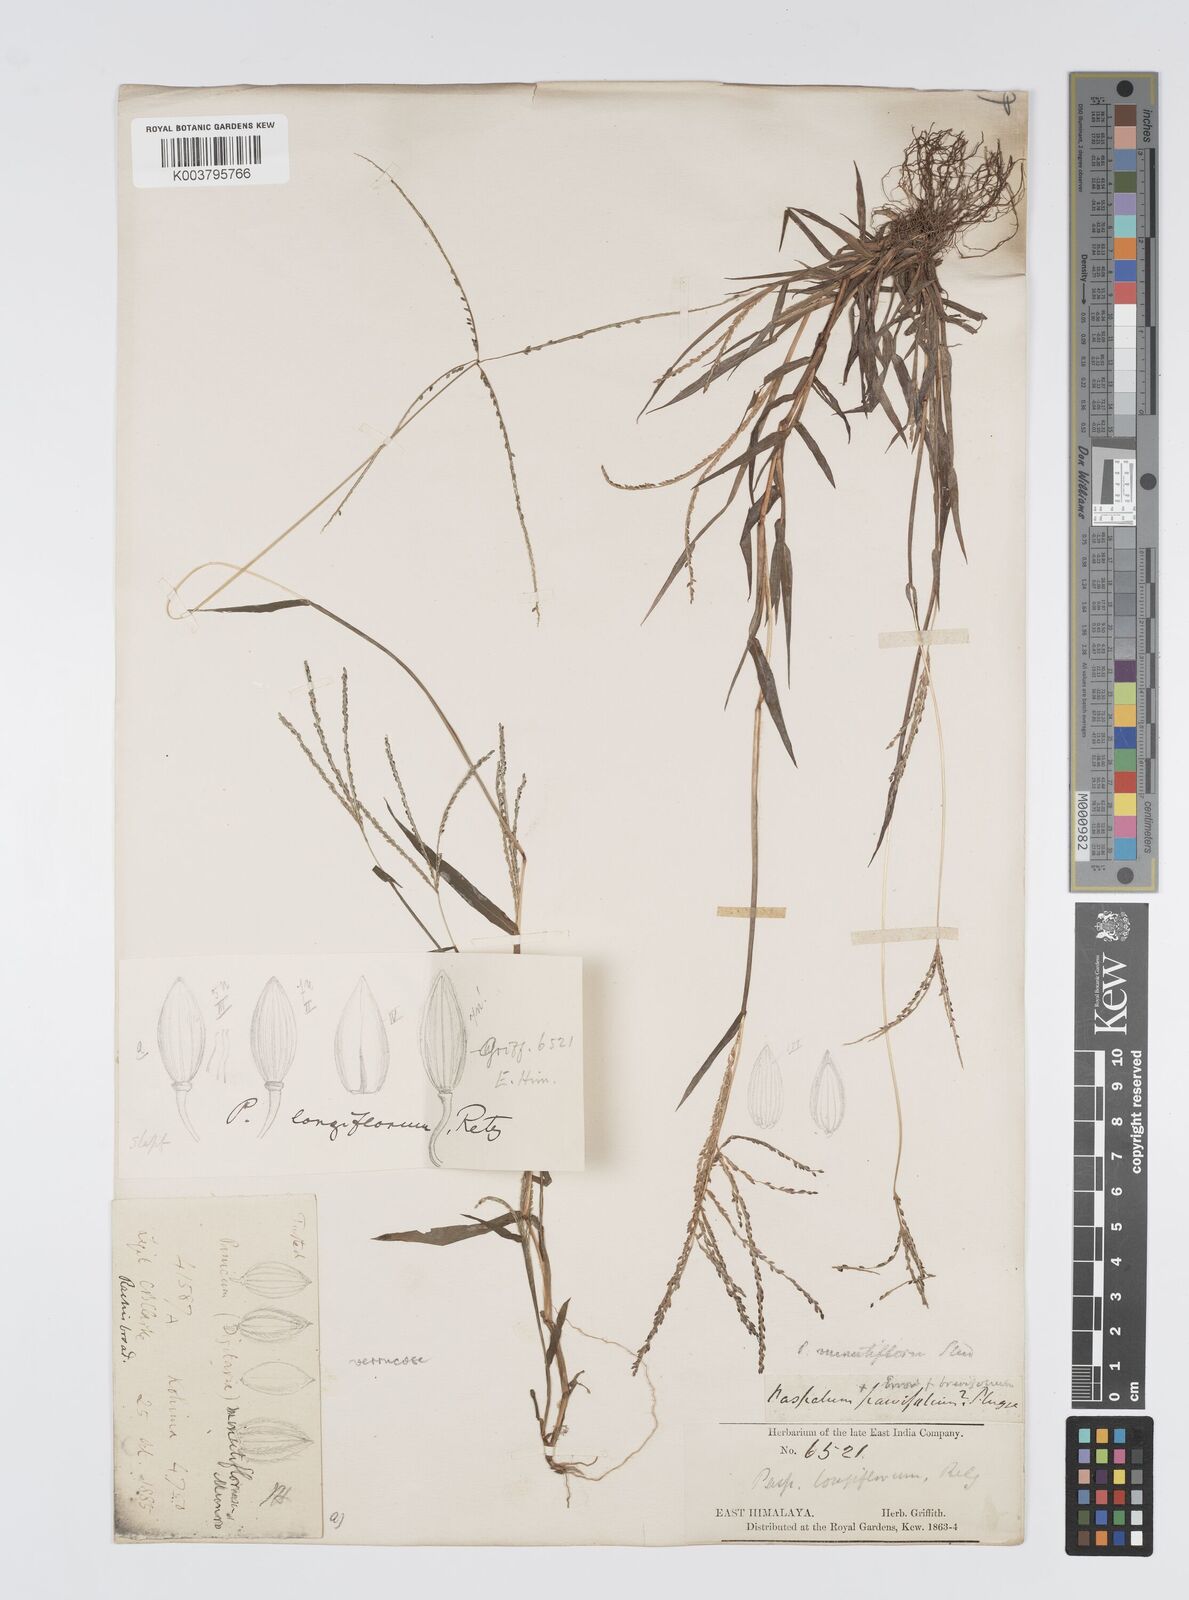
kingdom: Plantae
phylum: Tracheophyta
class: Liliopsida
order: Poales
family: Poaceae
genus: Digitaria
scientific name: Digitaria violascens
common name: Violet crabgrass
